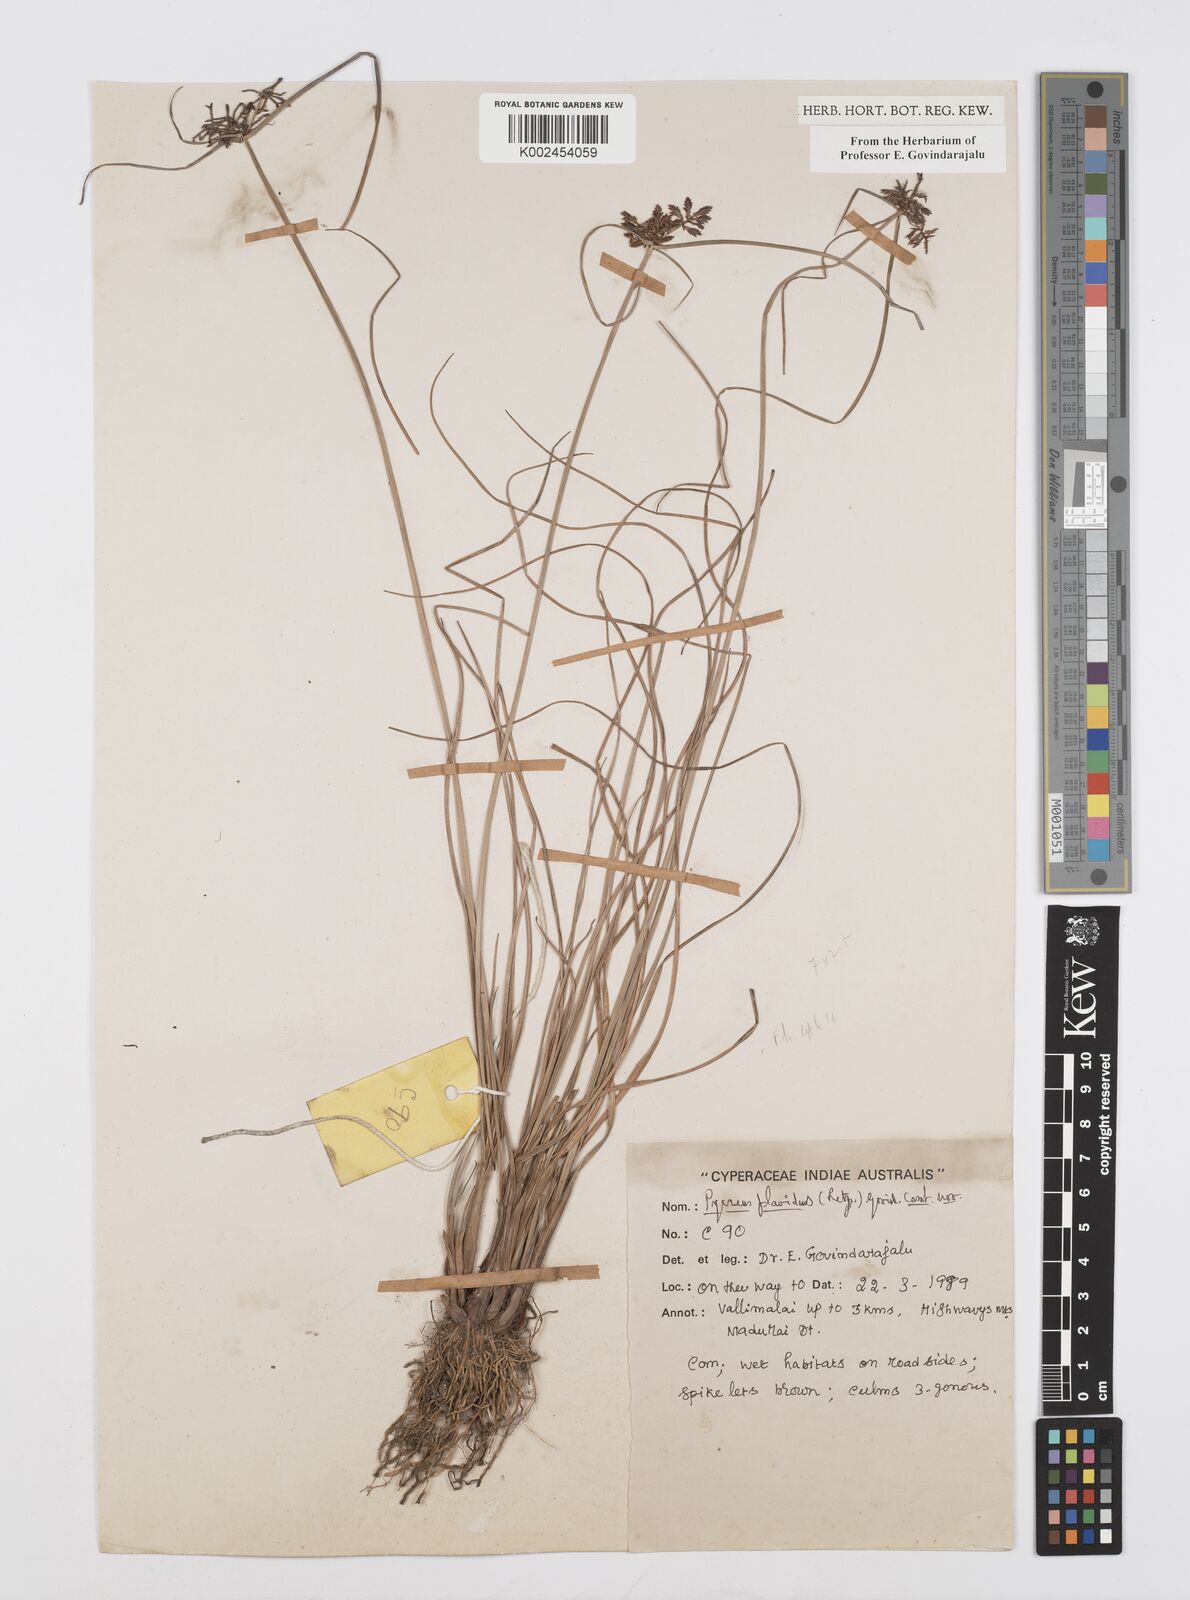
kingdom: Plantae
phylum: Tracheophyta
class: Liliopsida
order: Poales
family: Cyperaceae
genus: Cyperus
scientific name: Cyperus flavidus
